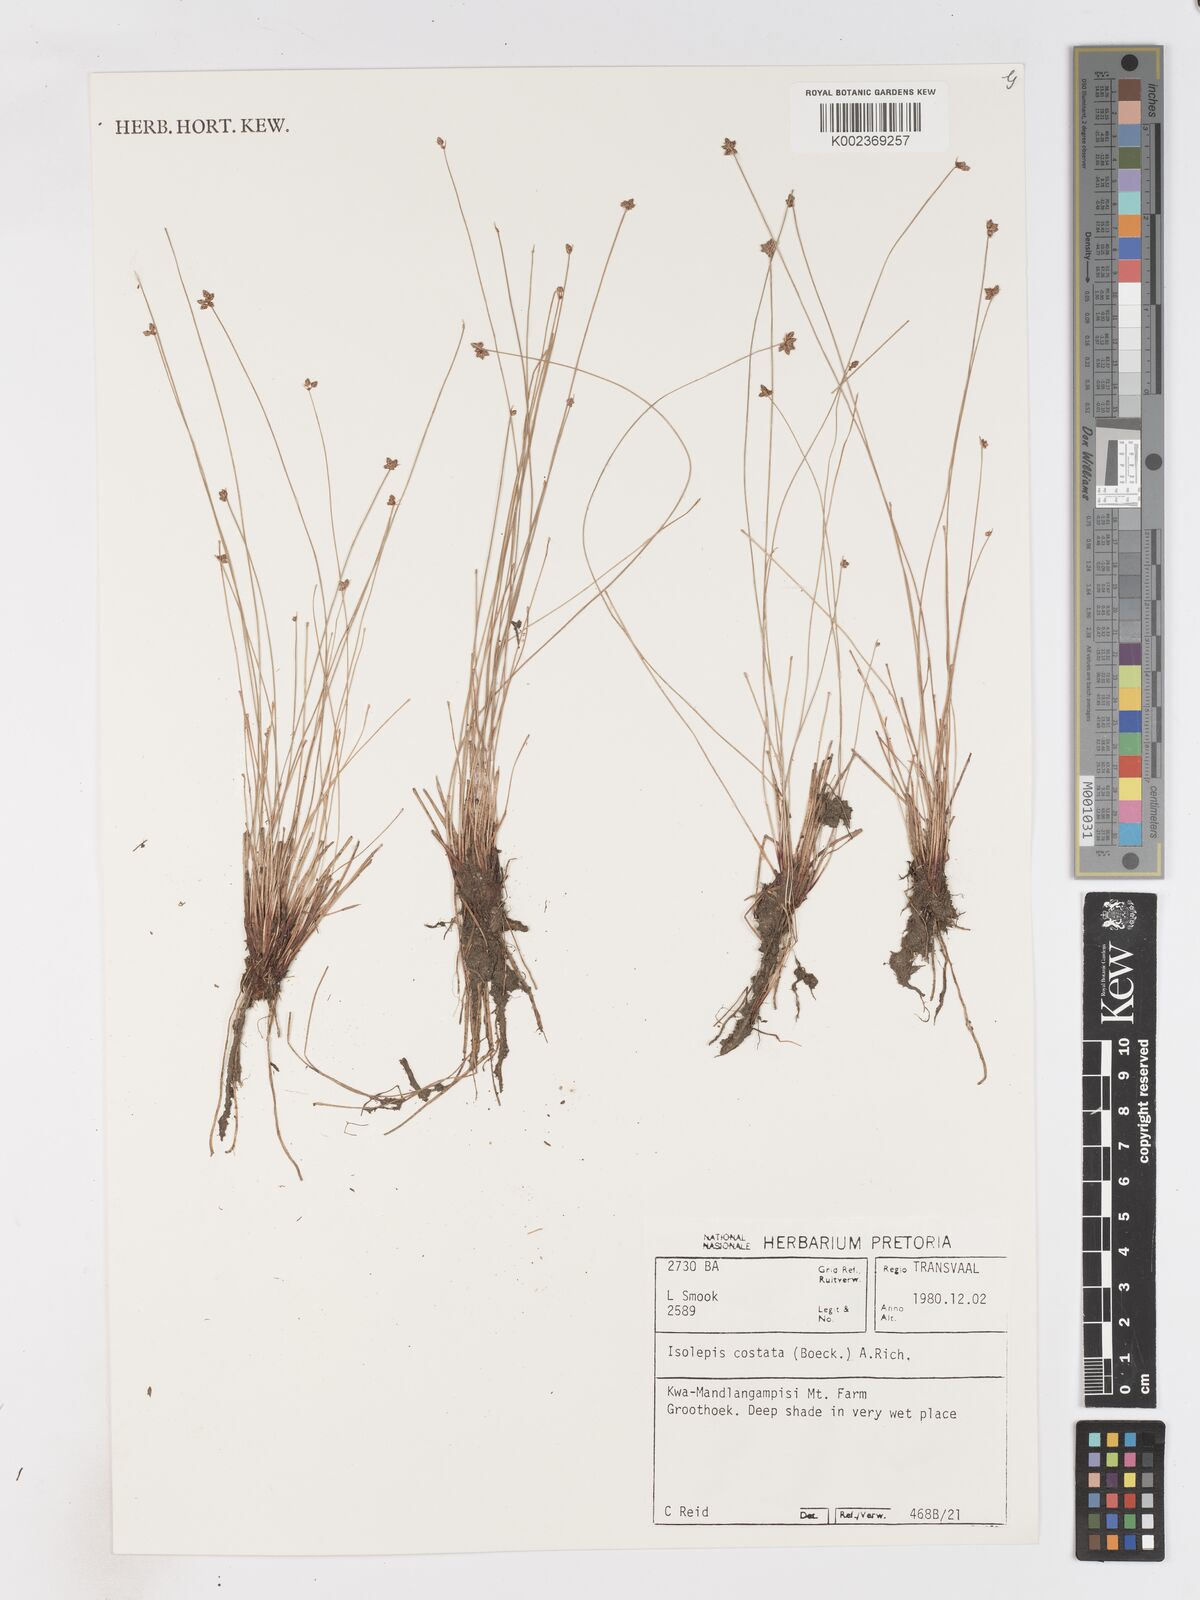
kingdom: Plantae
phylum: Tracheophyta
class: Liliopsida
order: Poales
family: Cyperaceae
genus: Isolepis
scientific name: Isolepis costata
